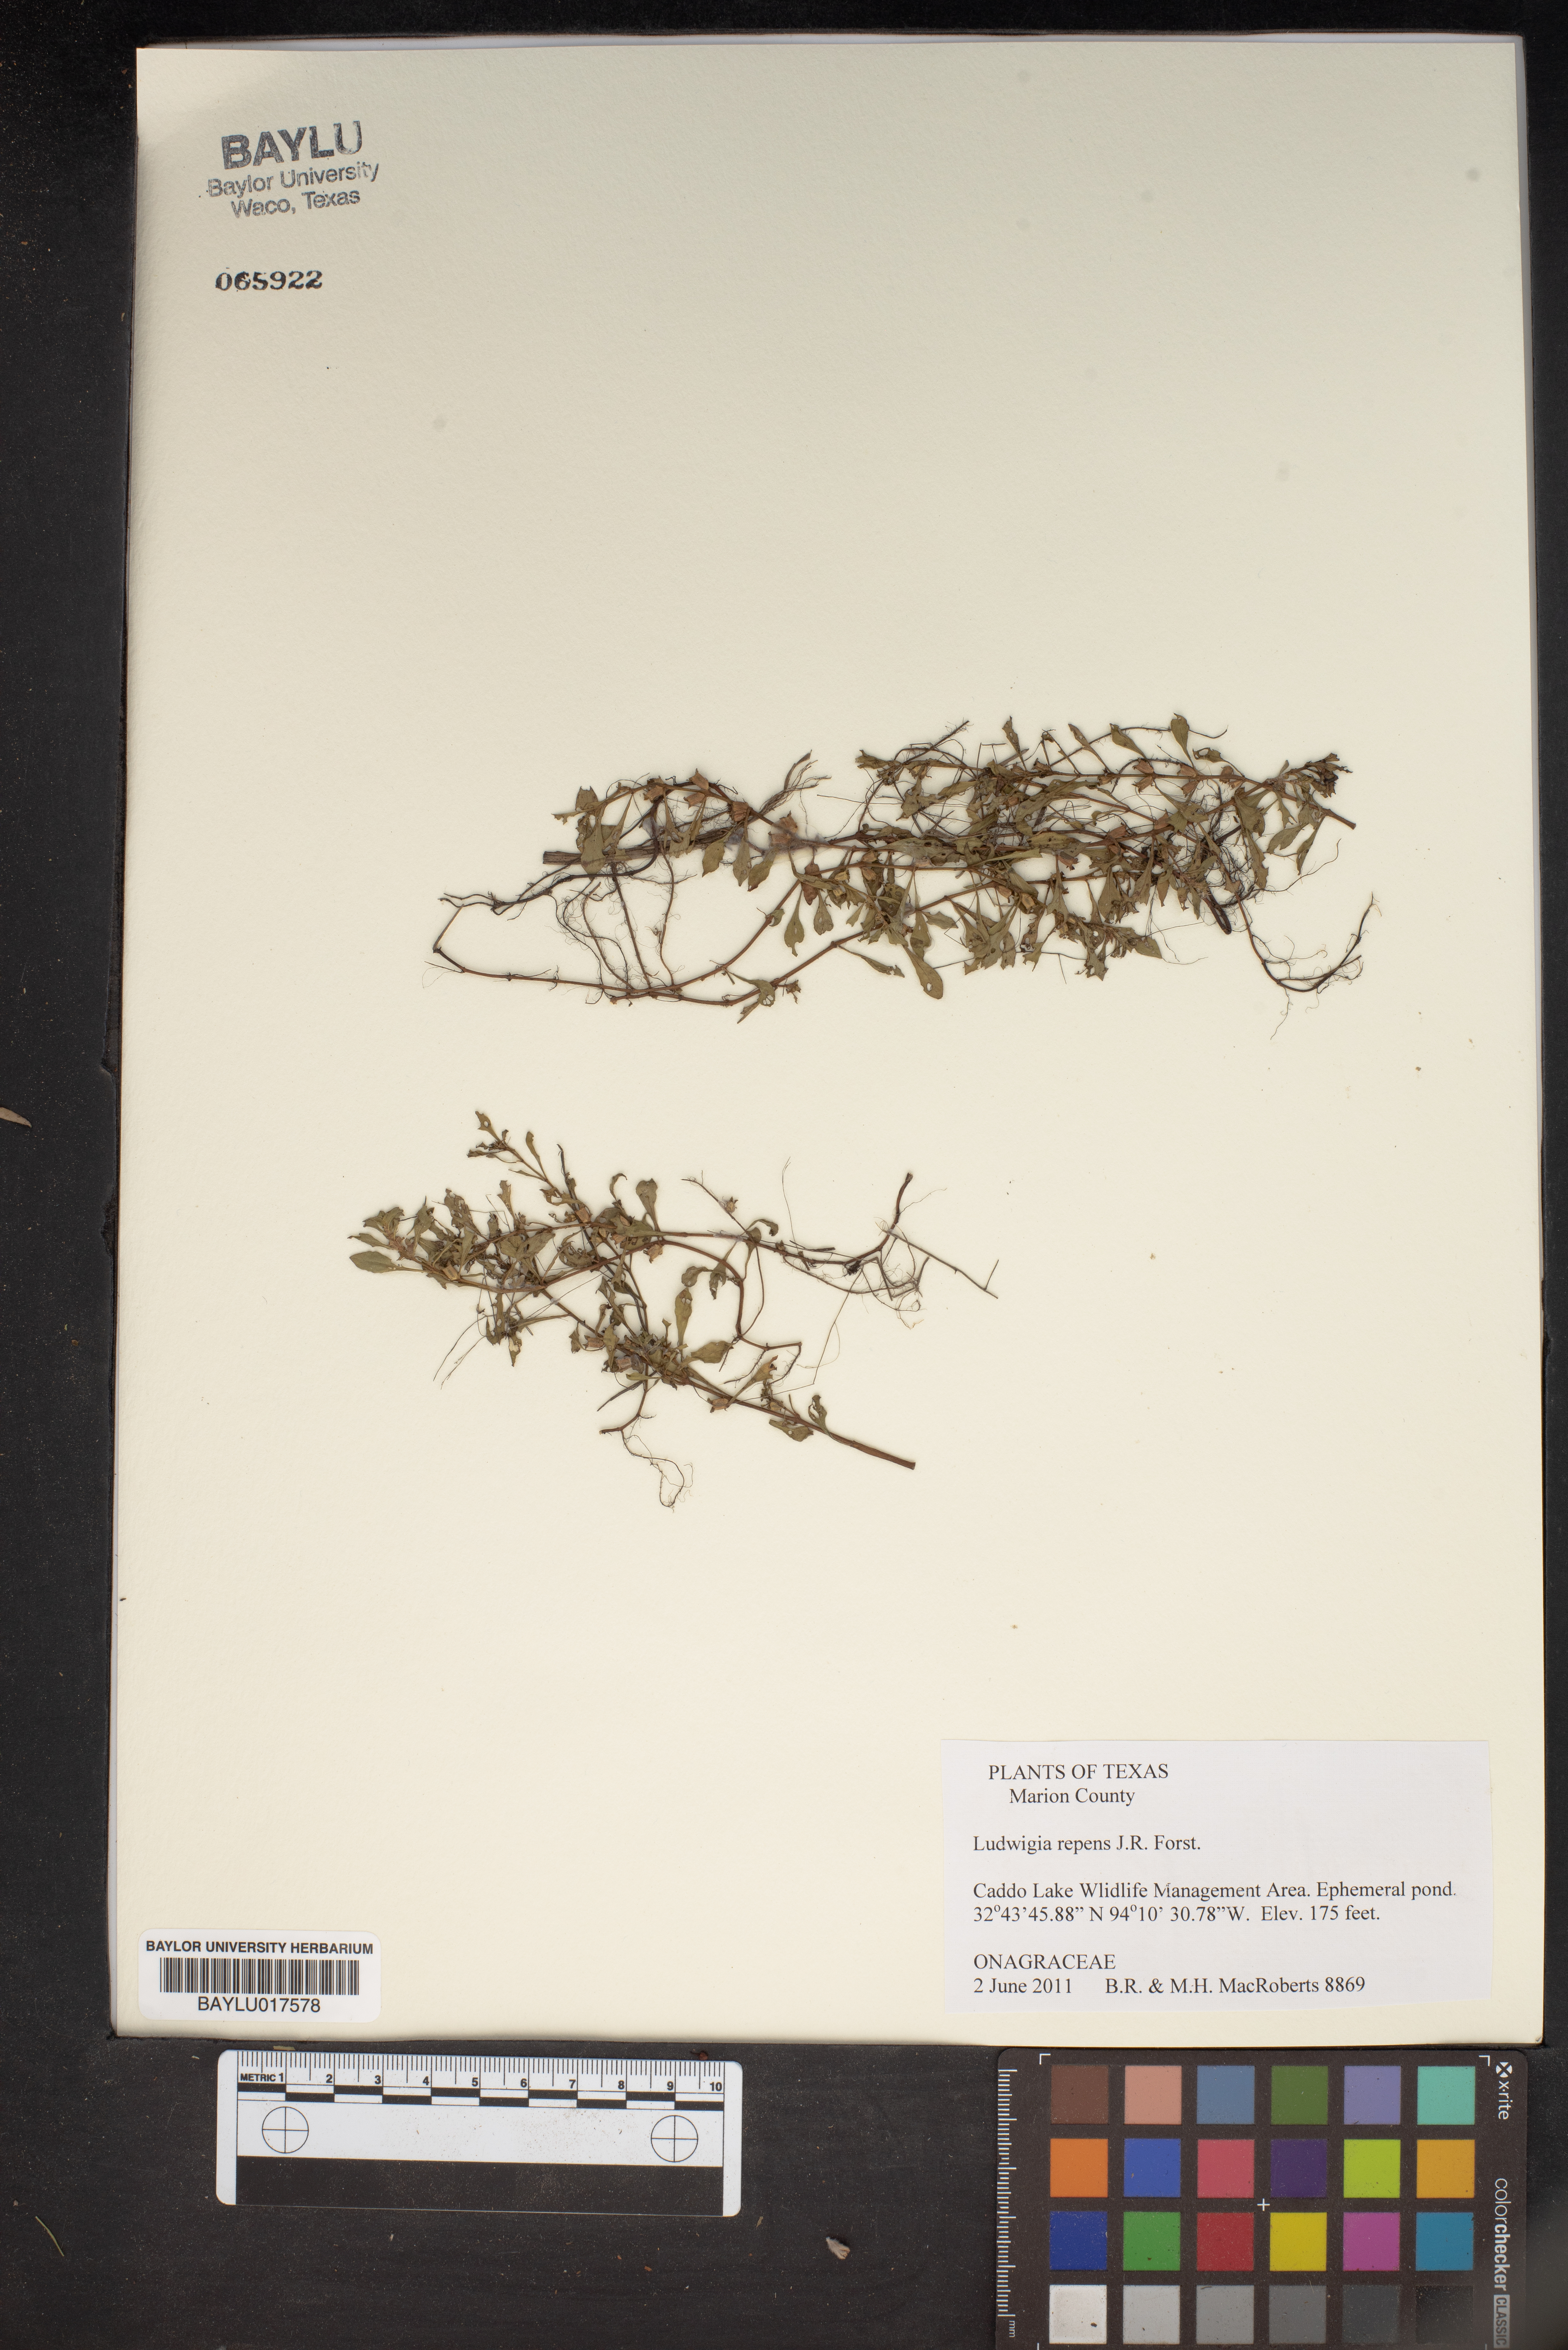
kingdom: Plantae
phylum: Tracheophyta
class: Magnoliopsida
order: Myrtales
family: Onagraceae
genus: Ludwigia
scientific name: Ludwigia repens
